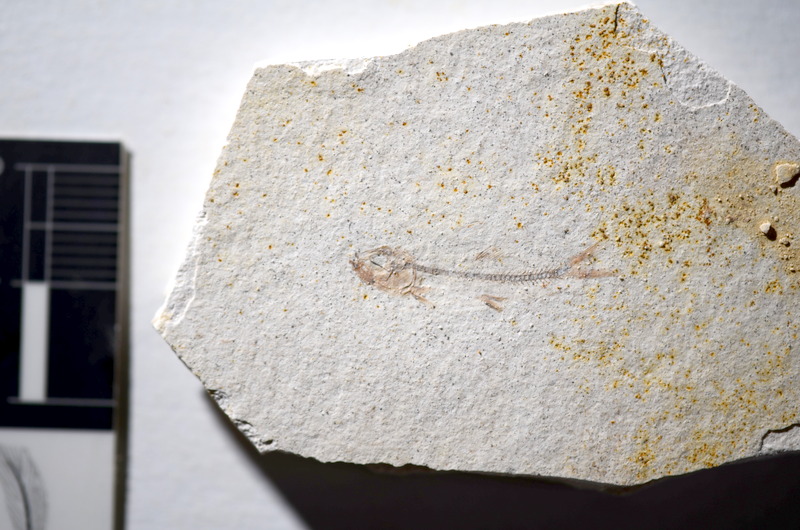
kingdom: Animalia
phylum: Chordata
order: Salmoniformes
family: Orthogonikleithridae
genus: Orthogonikleithrus
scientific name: Orthogonikleithrus hoelli
